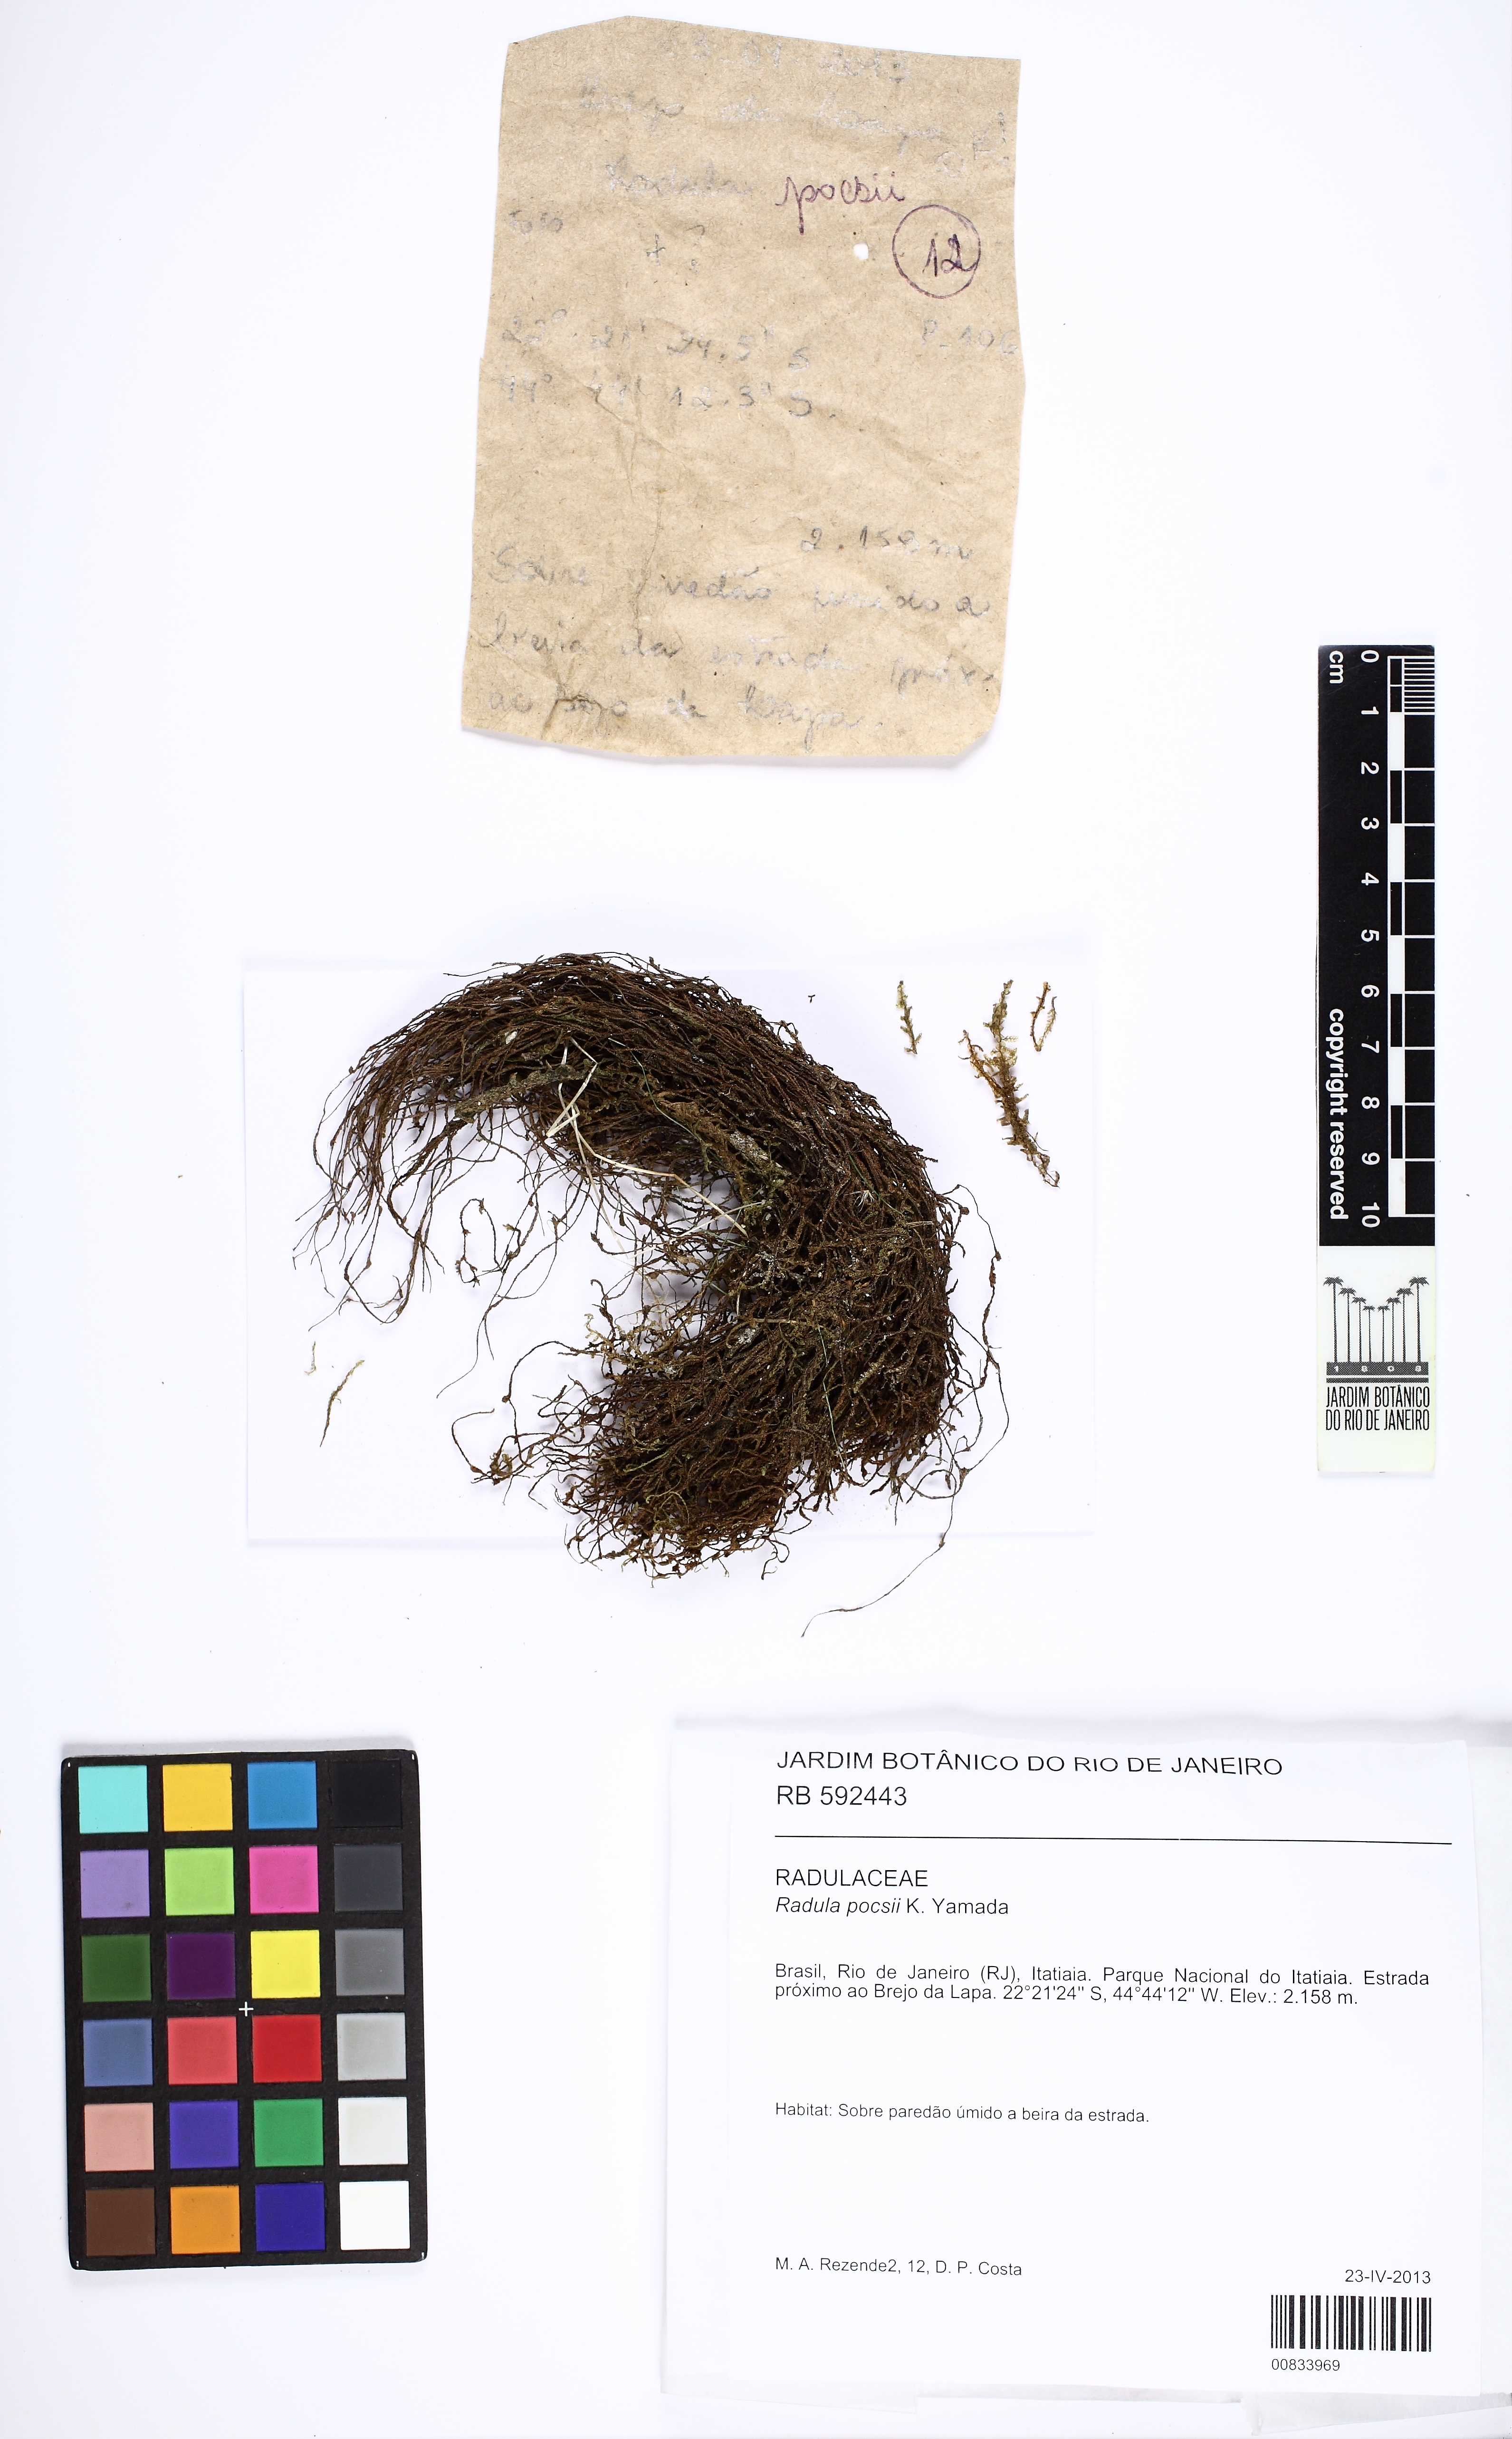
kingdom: Plantae
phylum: Marchantiophyta
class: Jungermanniopsida
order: Porellales
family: Radulaceae
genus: Radula
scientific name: Radula nudicaulis
